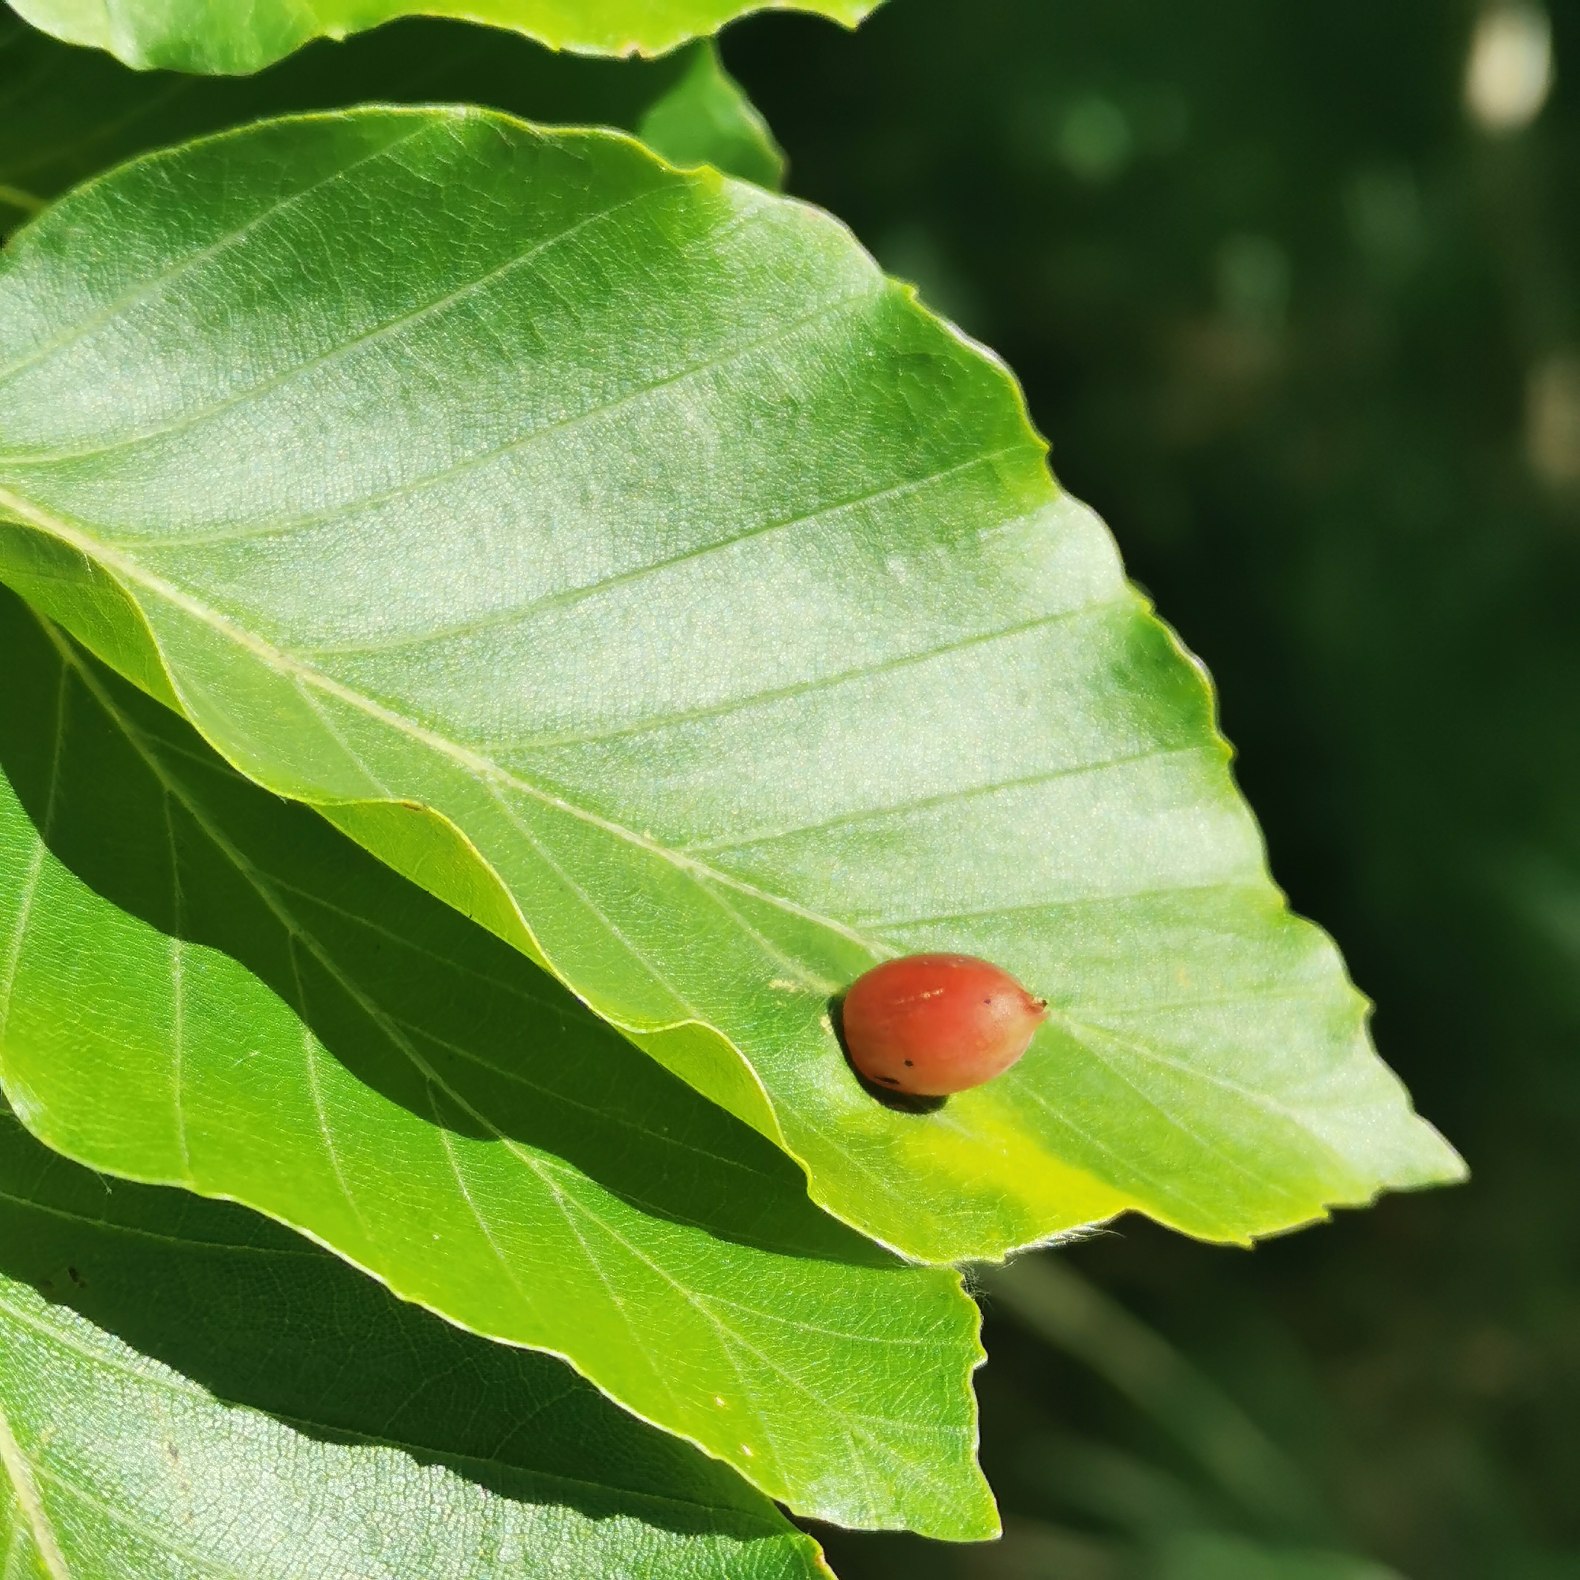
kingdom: Animalia
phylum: Arthropoda
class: Insecta
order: Diptera
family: Cecidomyiidae
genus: Mikiola
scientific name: Mikiola fagi
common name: Bøgegalmyg
